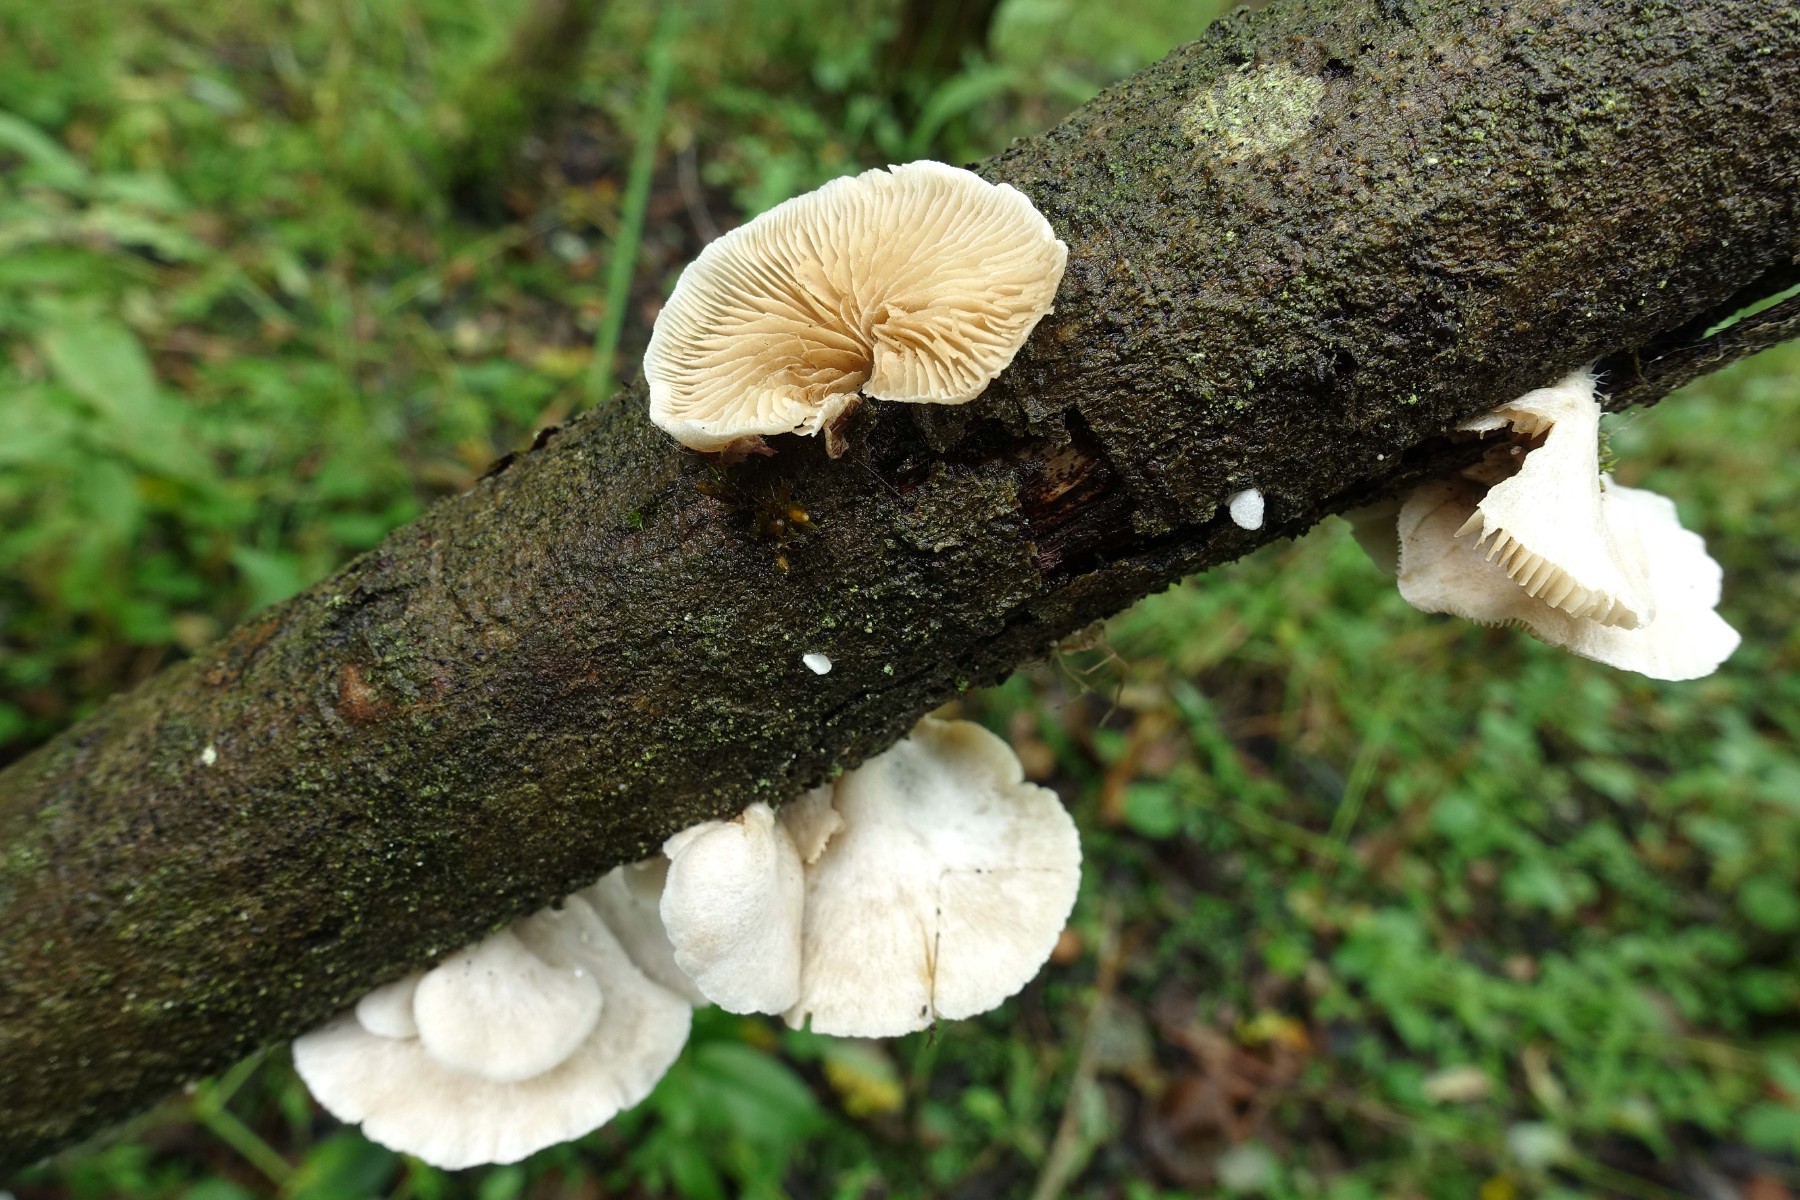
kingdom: Fungi
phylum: Basidiomycota
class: Agaricomycetes
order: Agaricales
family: Crepidotaceae
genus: Crepidotus
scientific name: Crepidotus caspari
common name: Lundells muslingesvamp
